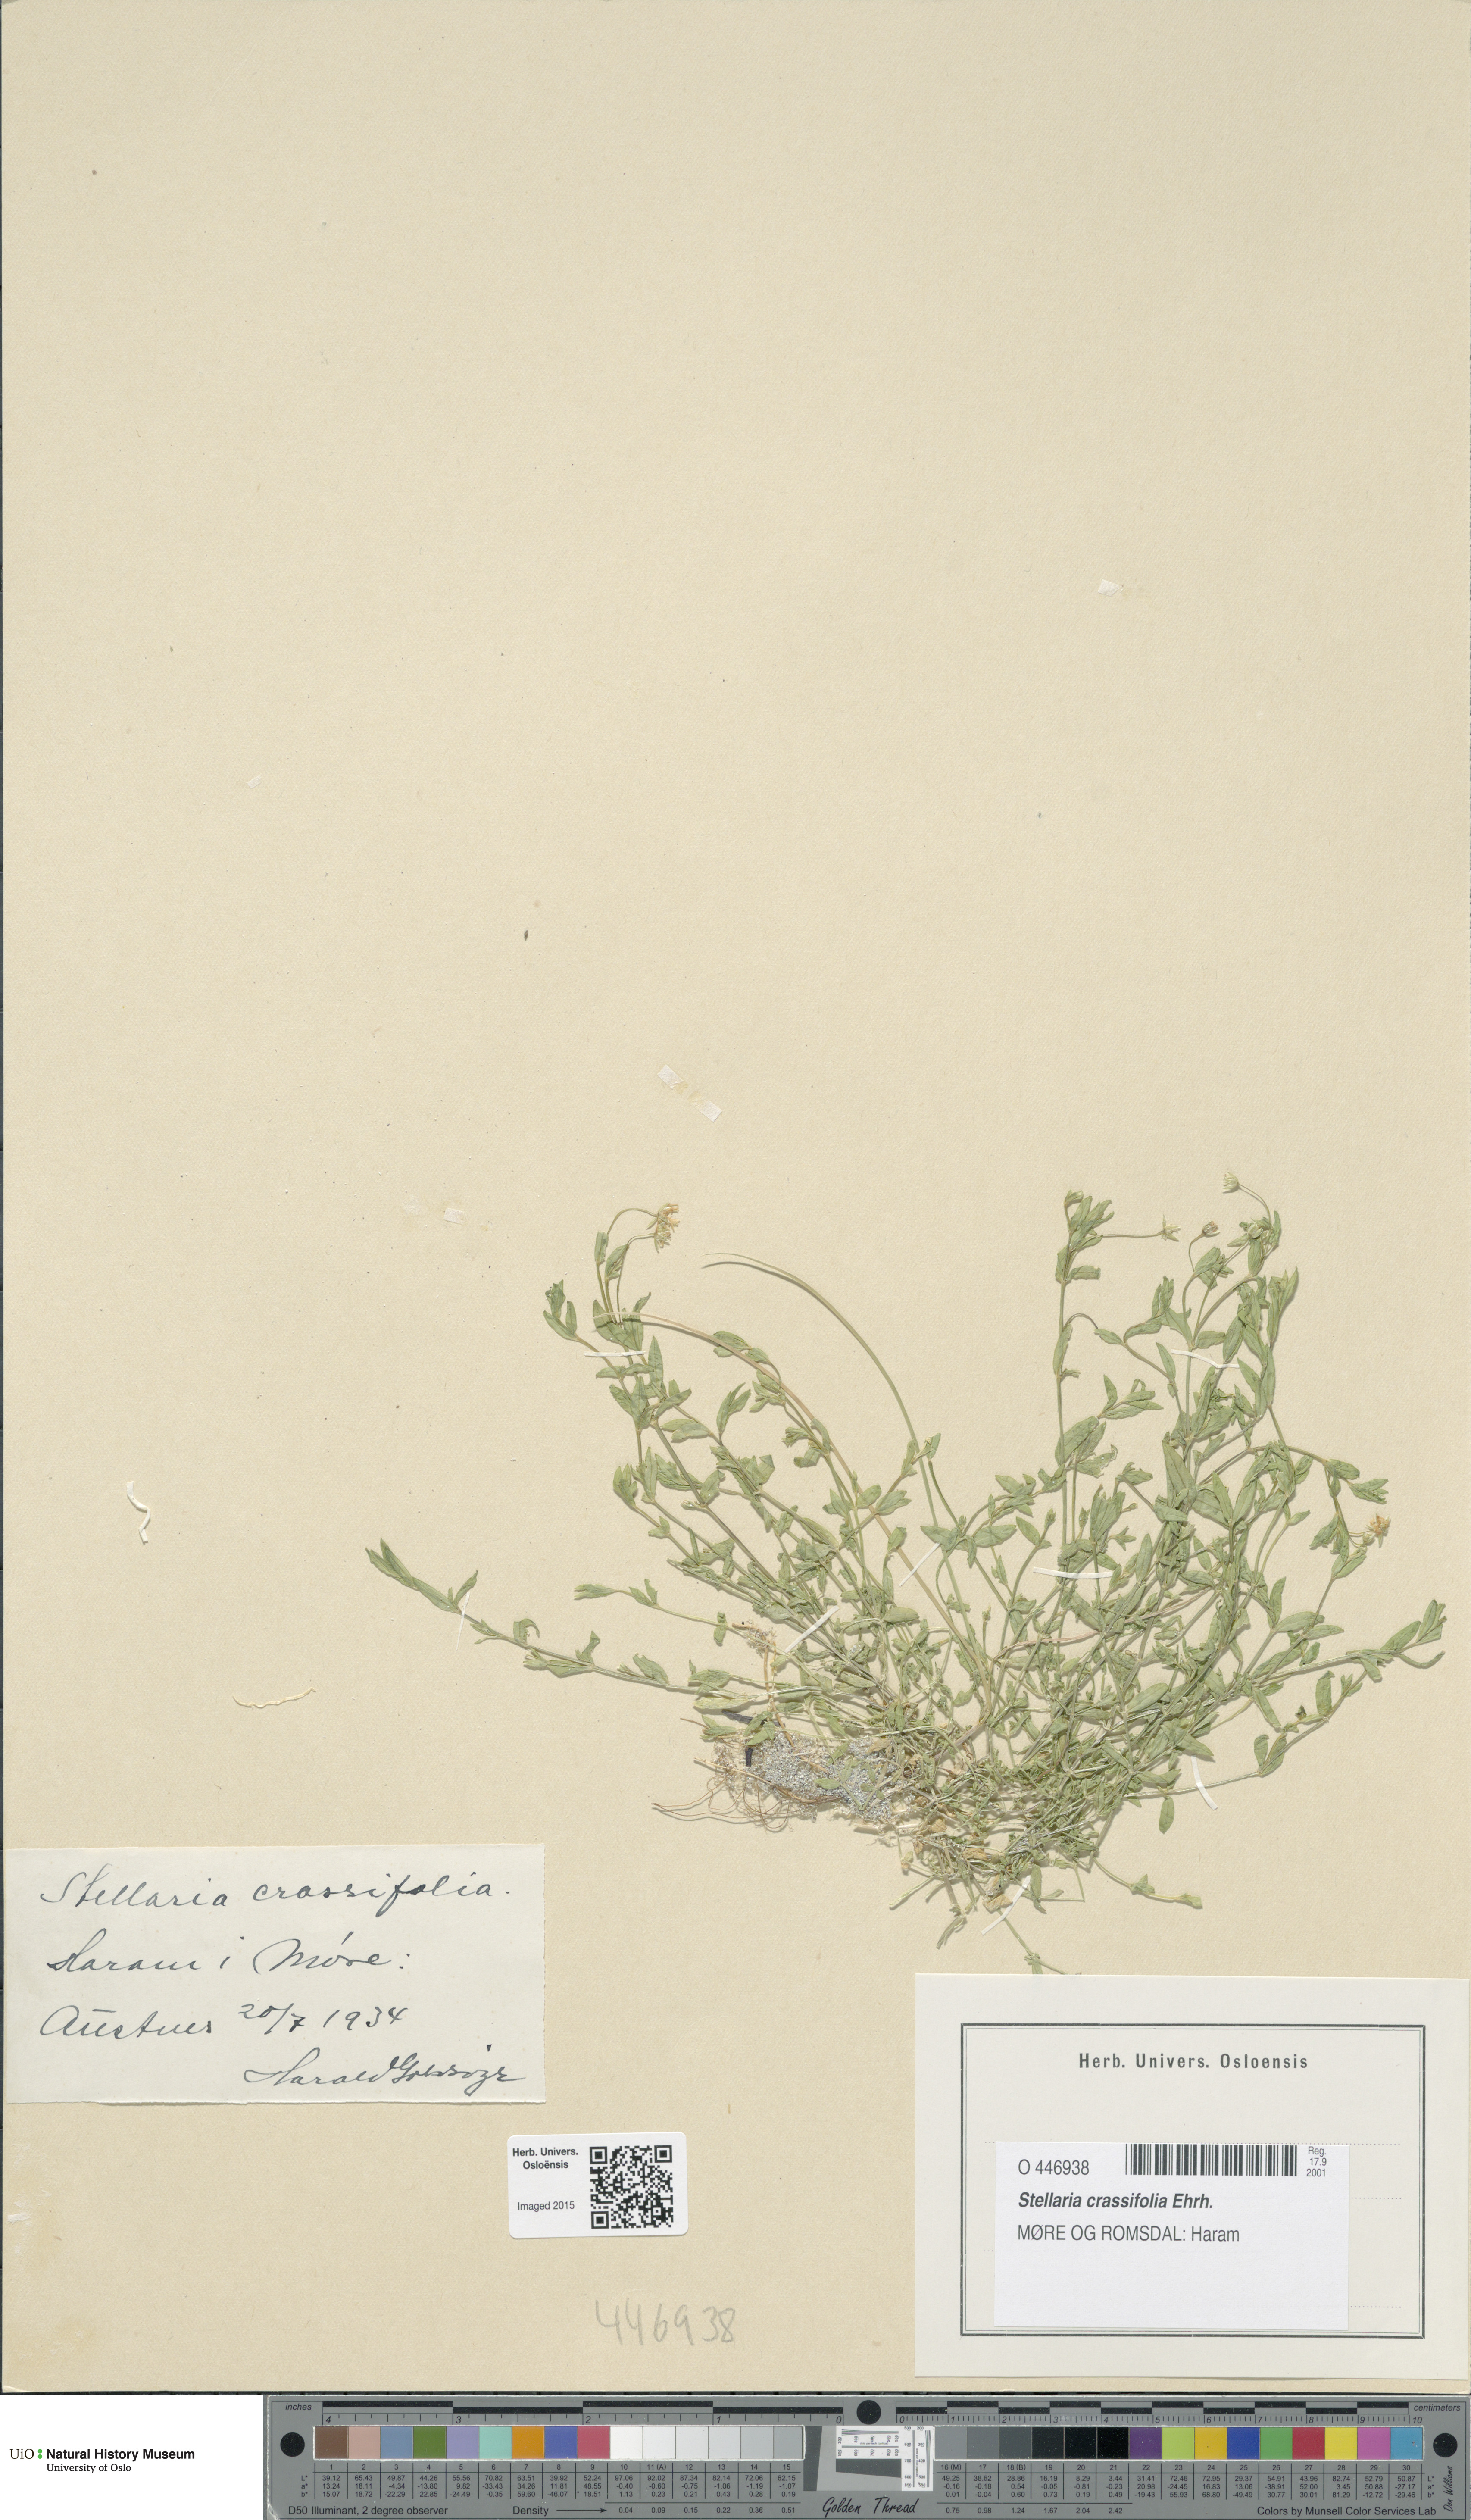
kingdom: Plantae
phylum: Tracheophyta
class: Magnoliopsida
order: Caryophyllales
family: Caryophyllaceae
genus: Stellaria
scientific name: Stellaria crassifolia
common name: Fleshy starwort
